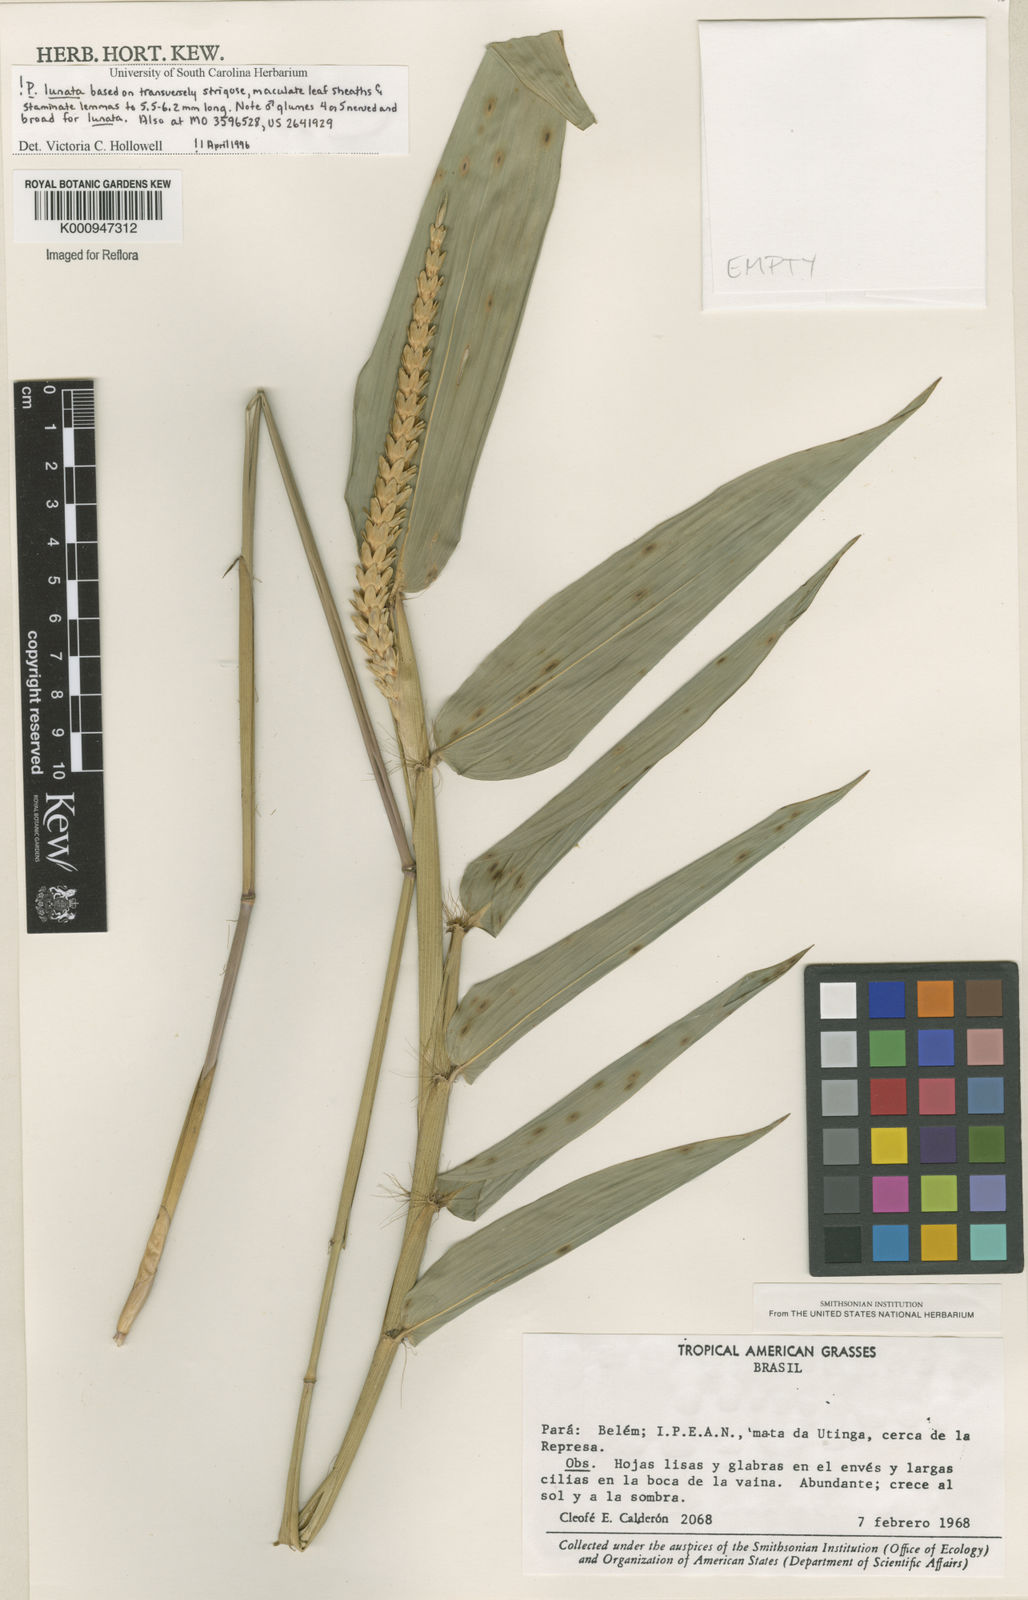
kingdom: Plantae
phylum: Tracheophyta
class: Liliopsida
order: Poales
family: Poaceae
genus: Pariana
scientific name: Pariana lunata
